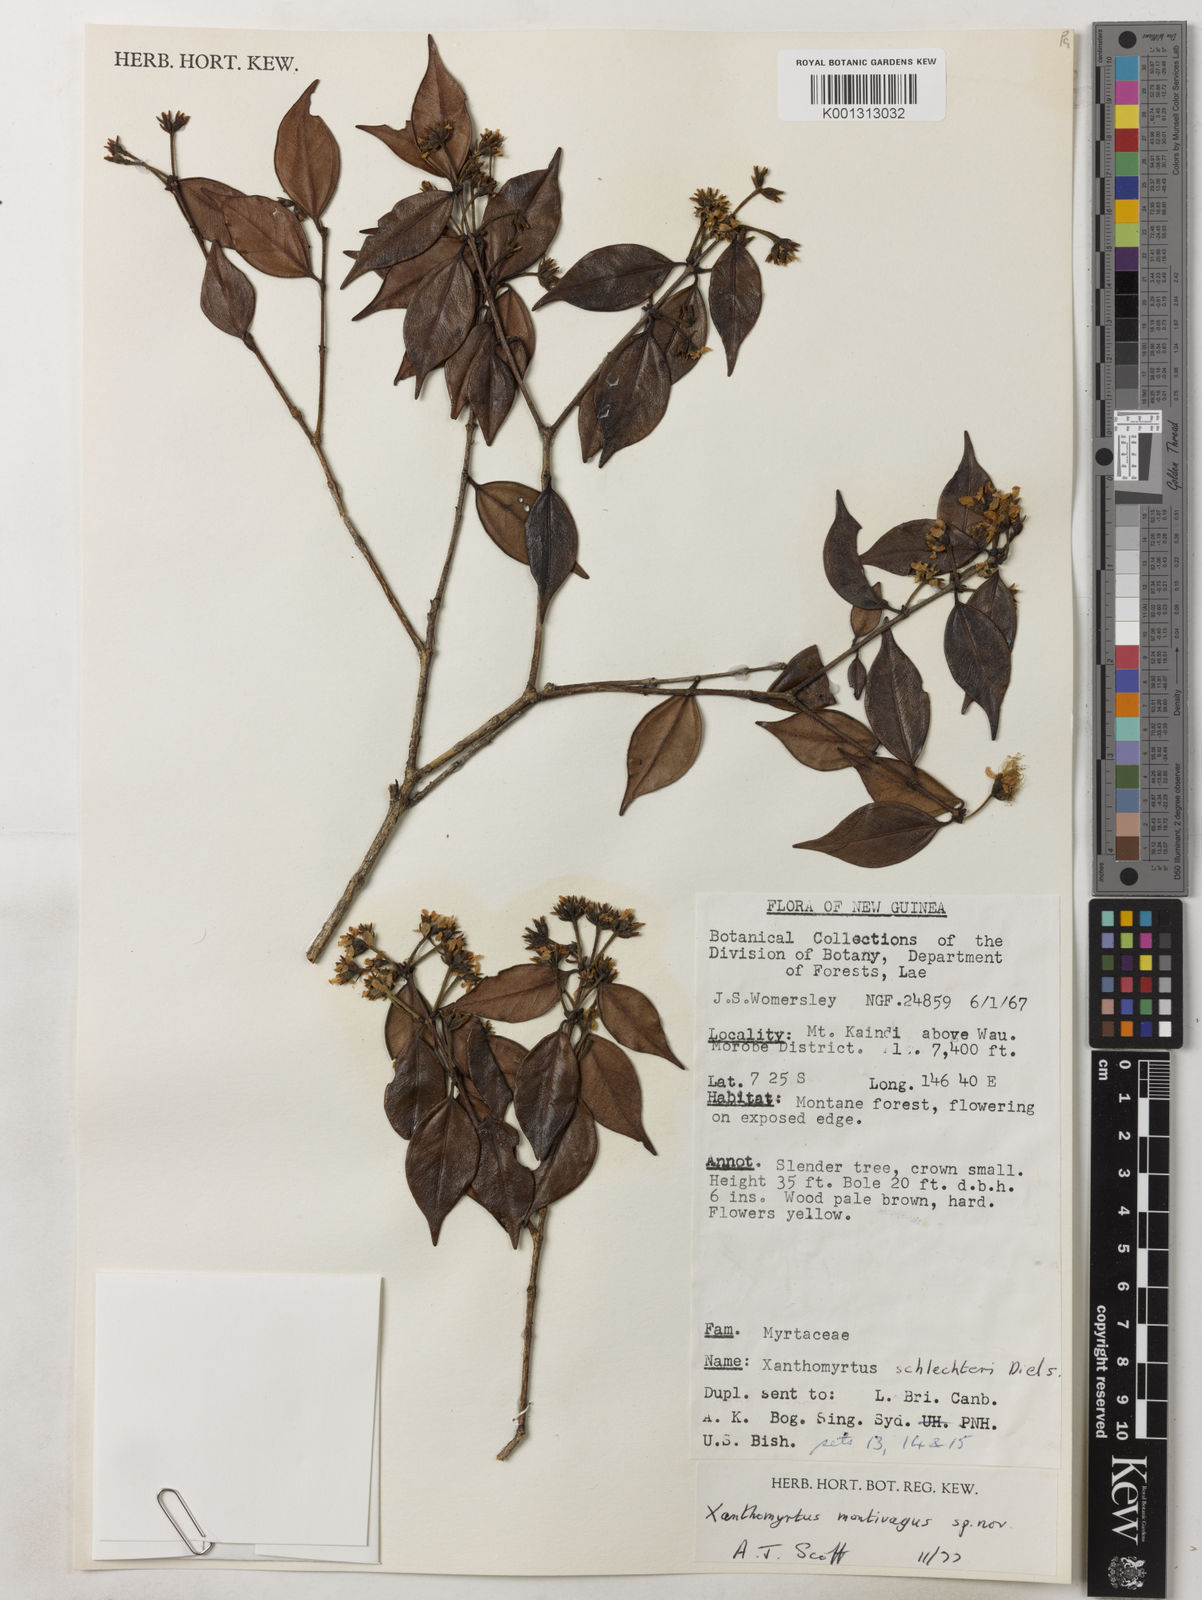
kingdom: Plantae
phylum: Tracheophyta
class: Magnoliopsida
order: Myrtales
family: Myrtaceae
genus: Xanthomyrtus
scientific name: Xanthomyrtus montivaga
